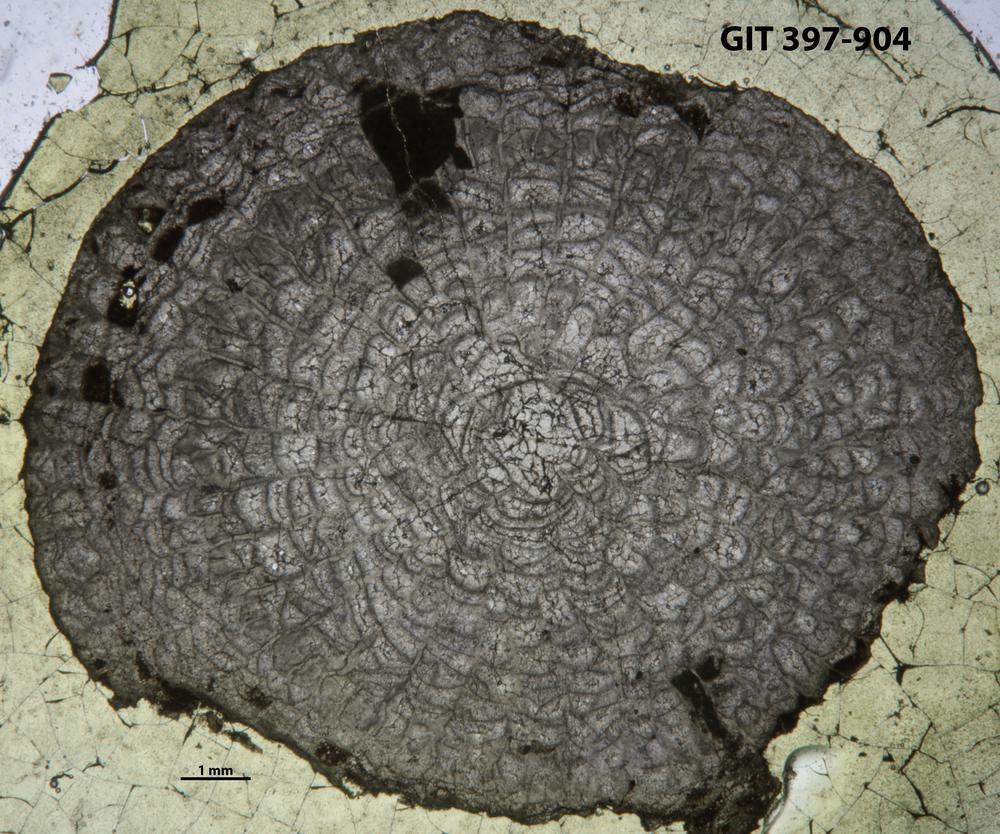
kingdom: Animalia
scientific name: Animalia
